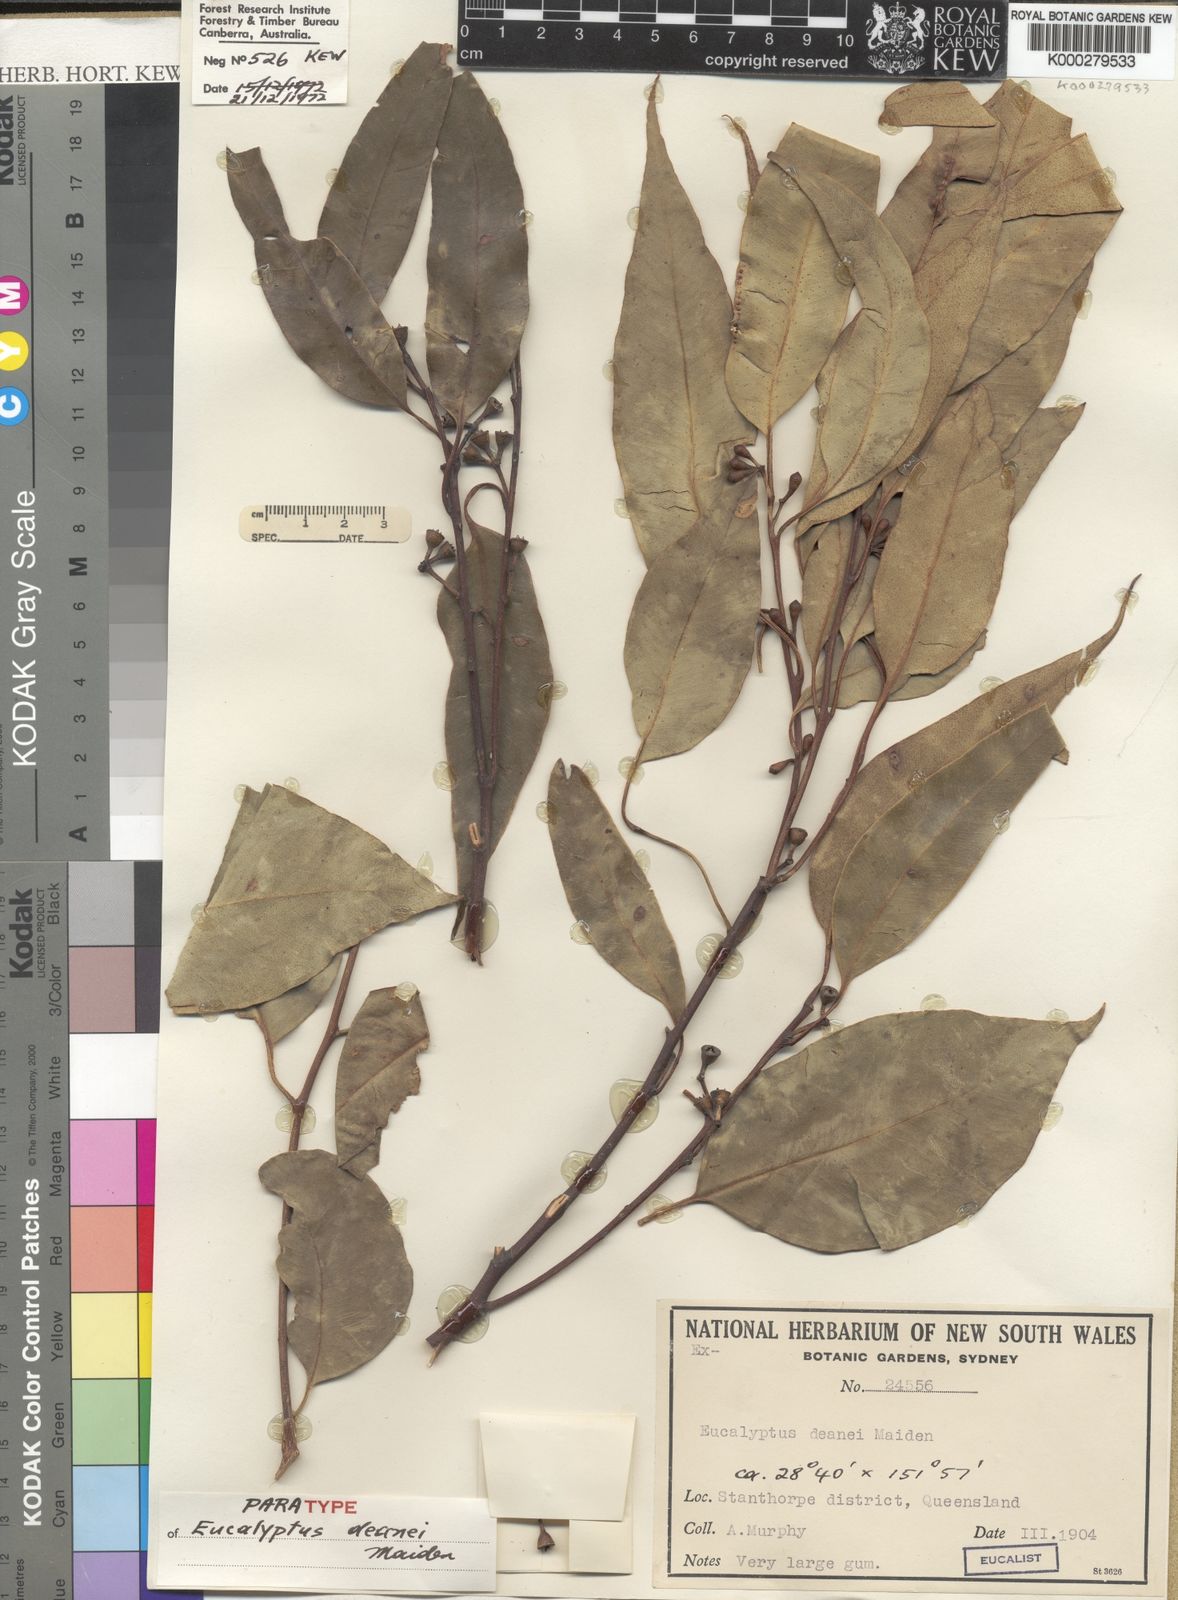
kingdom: Plantae
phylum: Tracheophyta
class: Magnoliopsida
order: Myrtales
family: Myrtaceae
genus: Eucalyptus
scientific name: Eucalyptus deanei
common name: Brown gum
